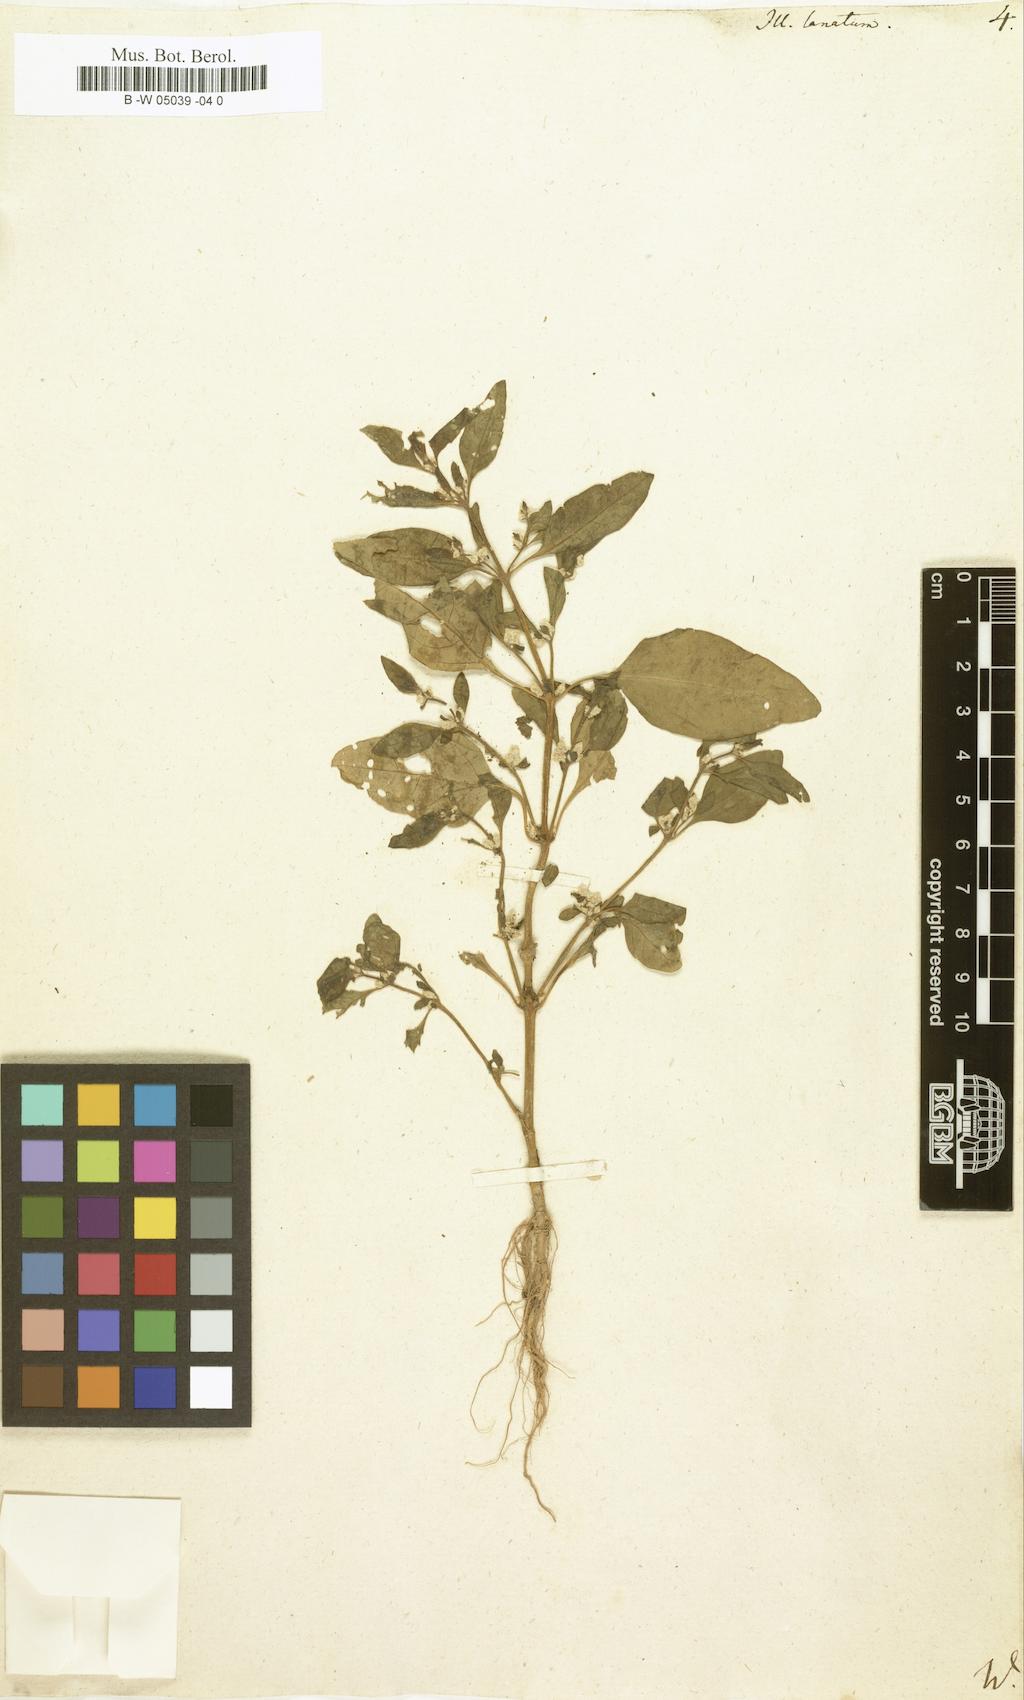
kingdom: Plantae
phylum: Tracheophyta
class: Magnoliopsida
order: Caryophyllales
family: Amaranthaceae
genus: Ouret
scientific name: Ouret lanata
